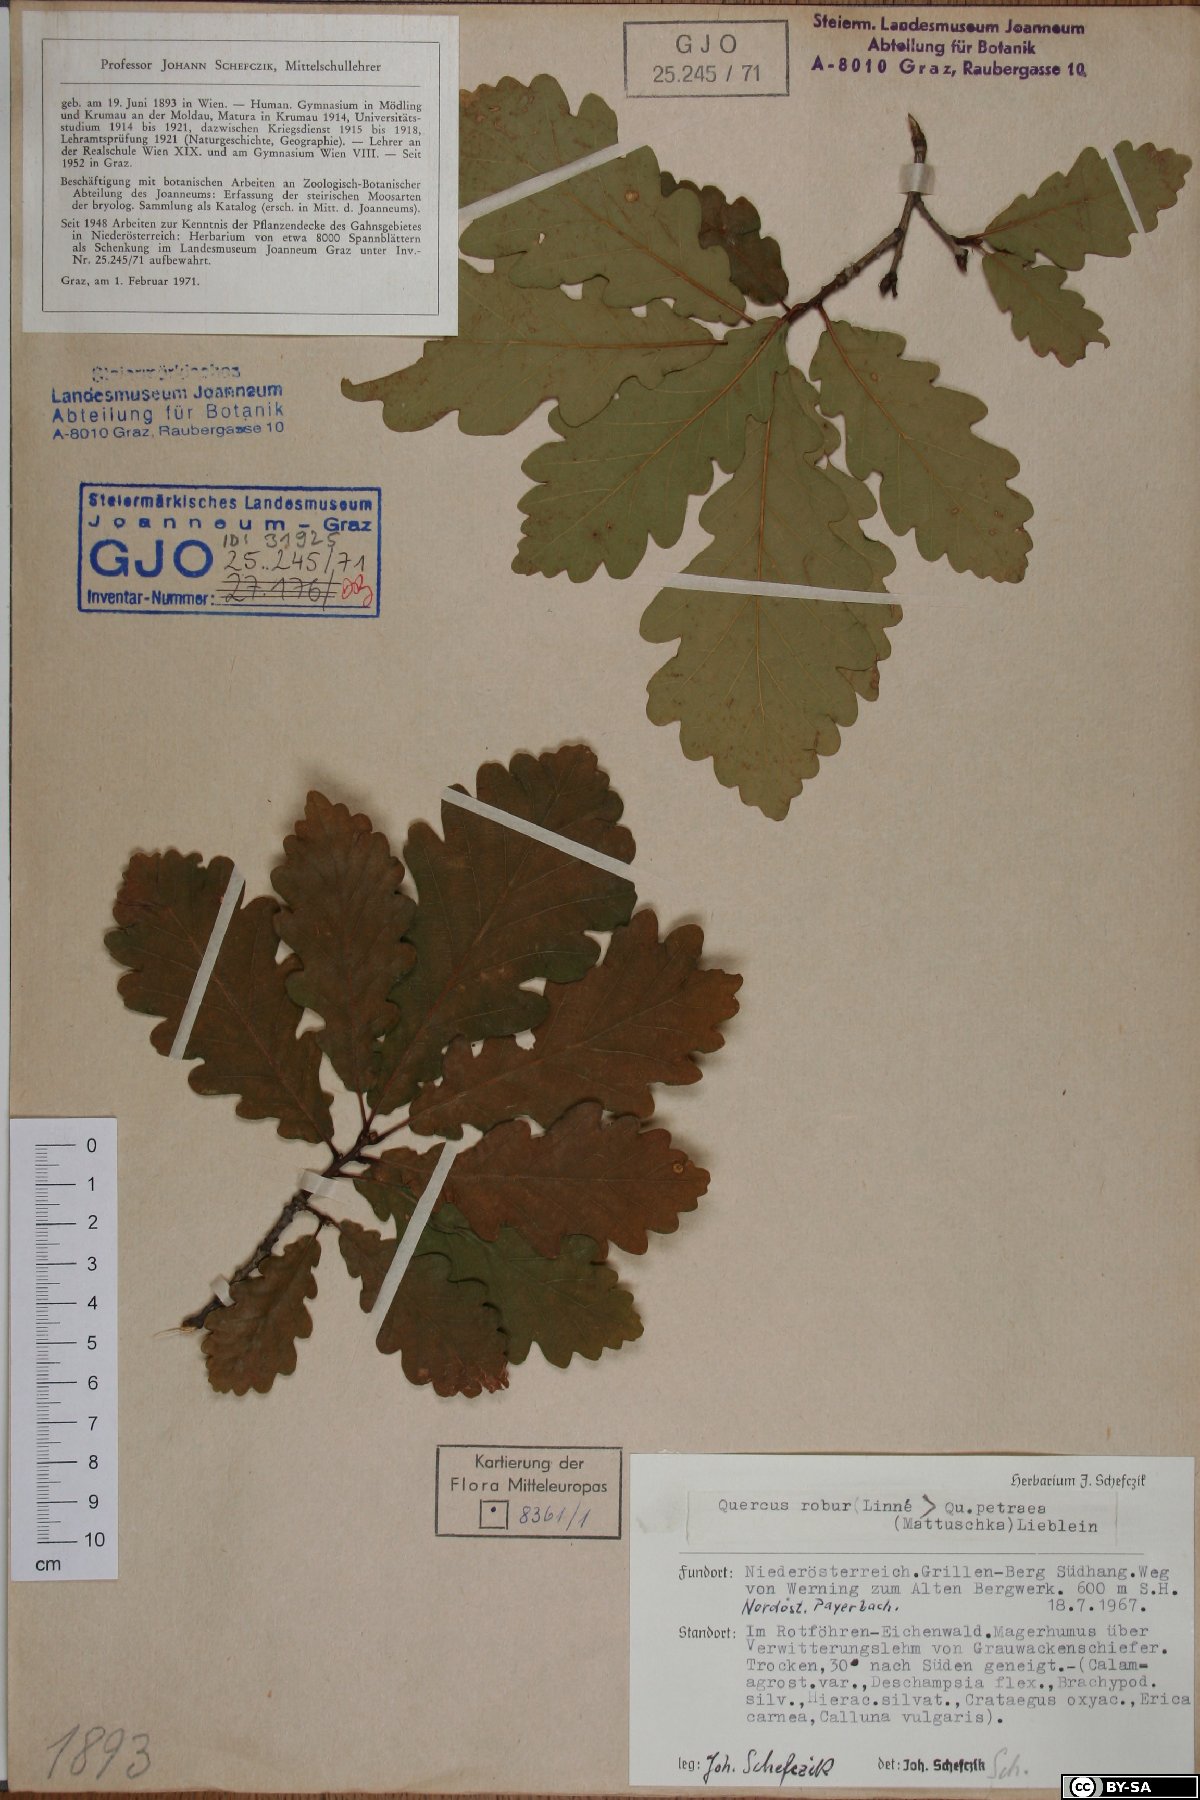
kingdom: Plantae
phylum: Tracheophyta
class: Magnoliopsida
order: Fagales
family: Fagaceae
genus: Quercus
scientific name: Quercus petraea
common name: Sessile oak
